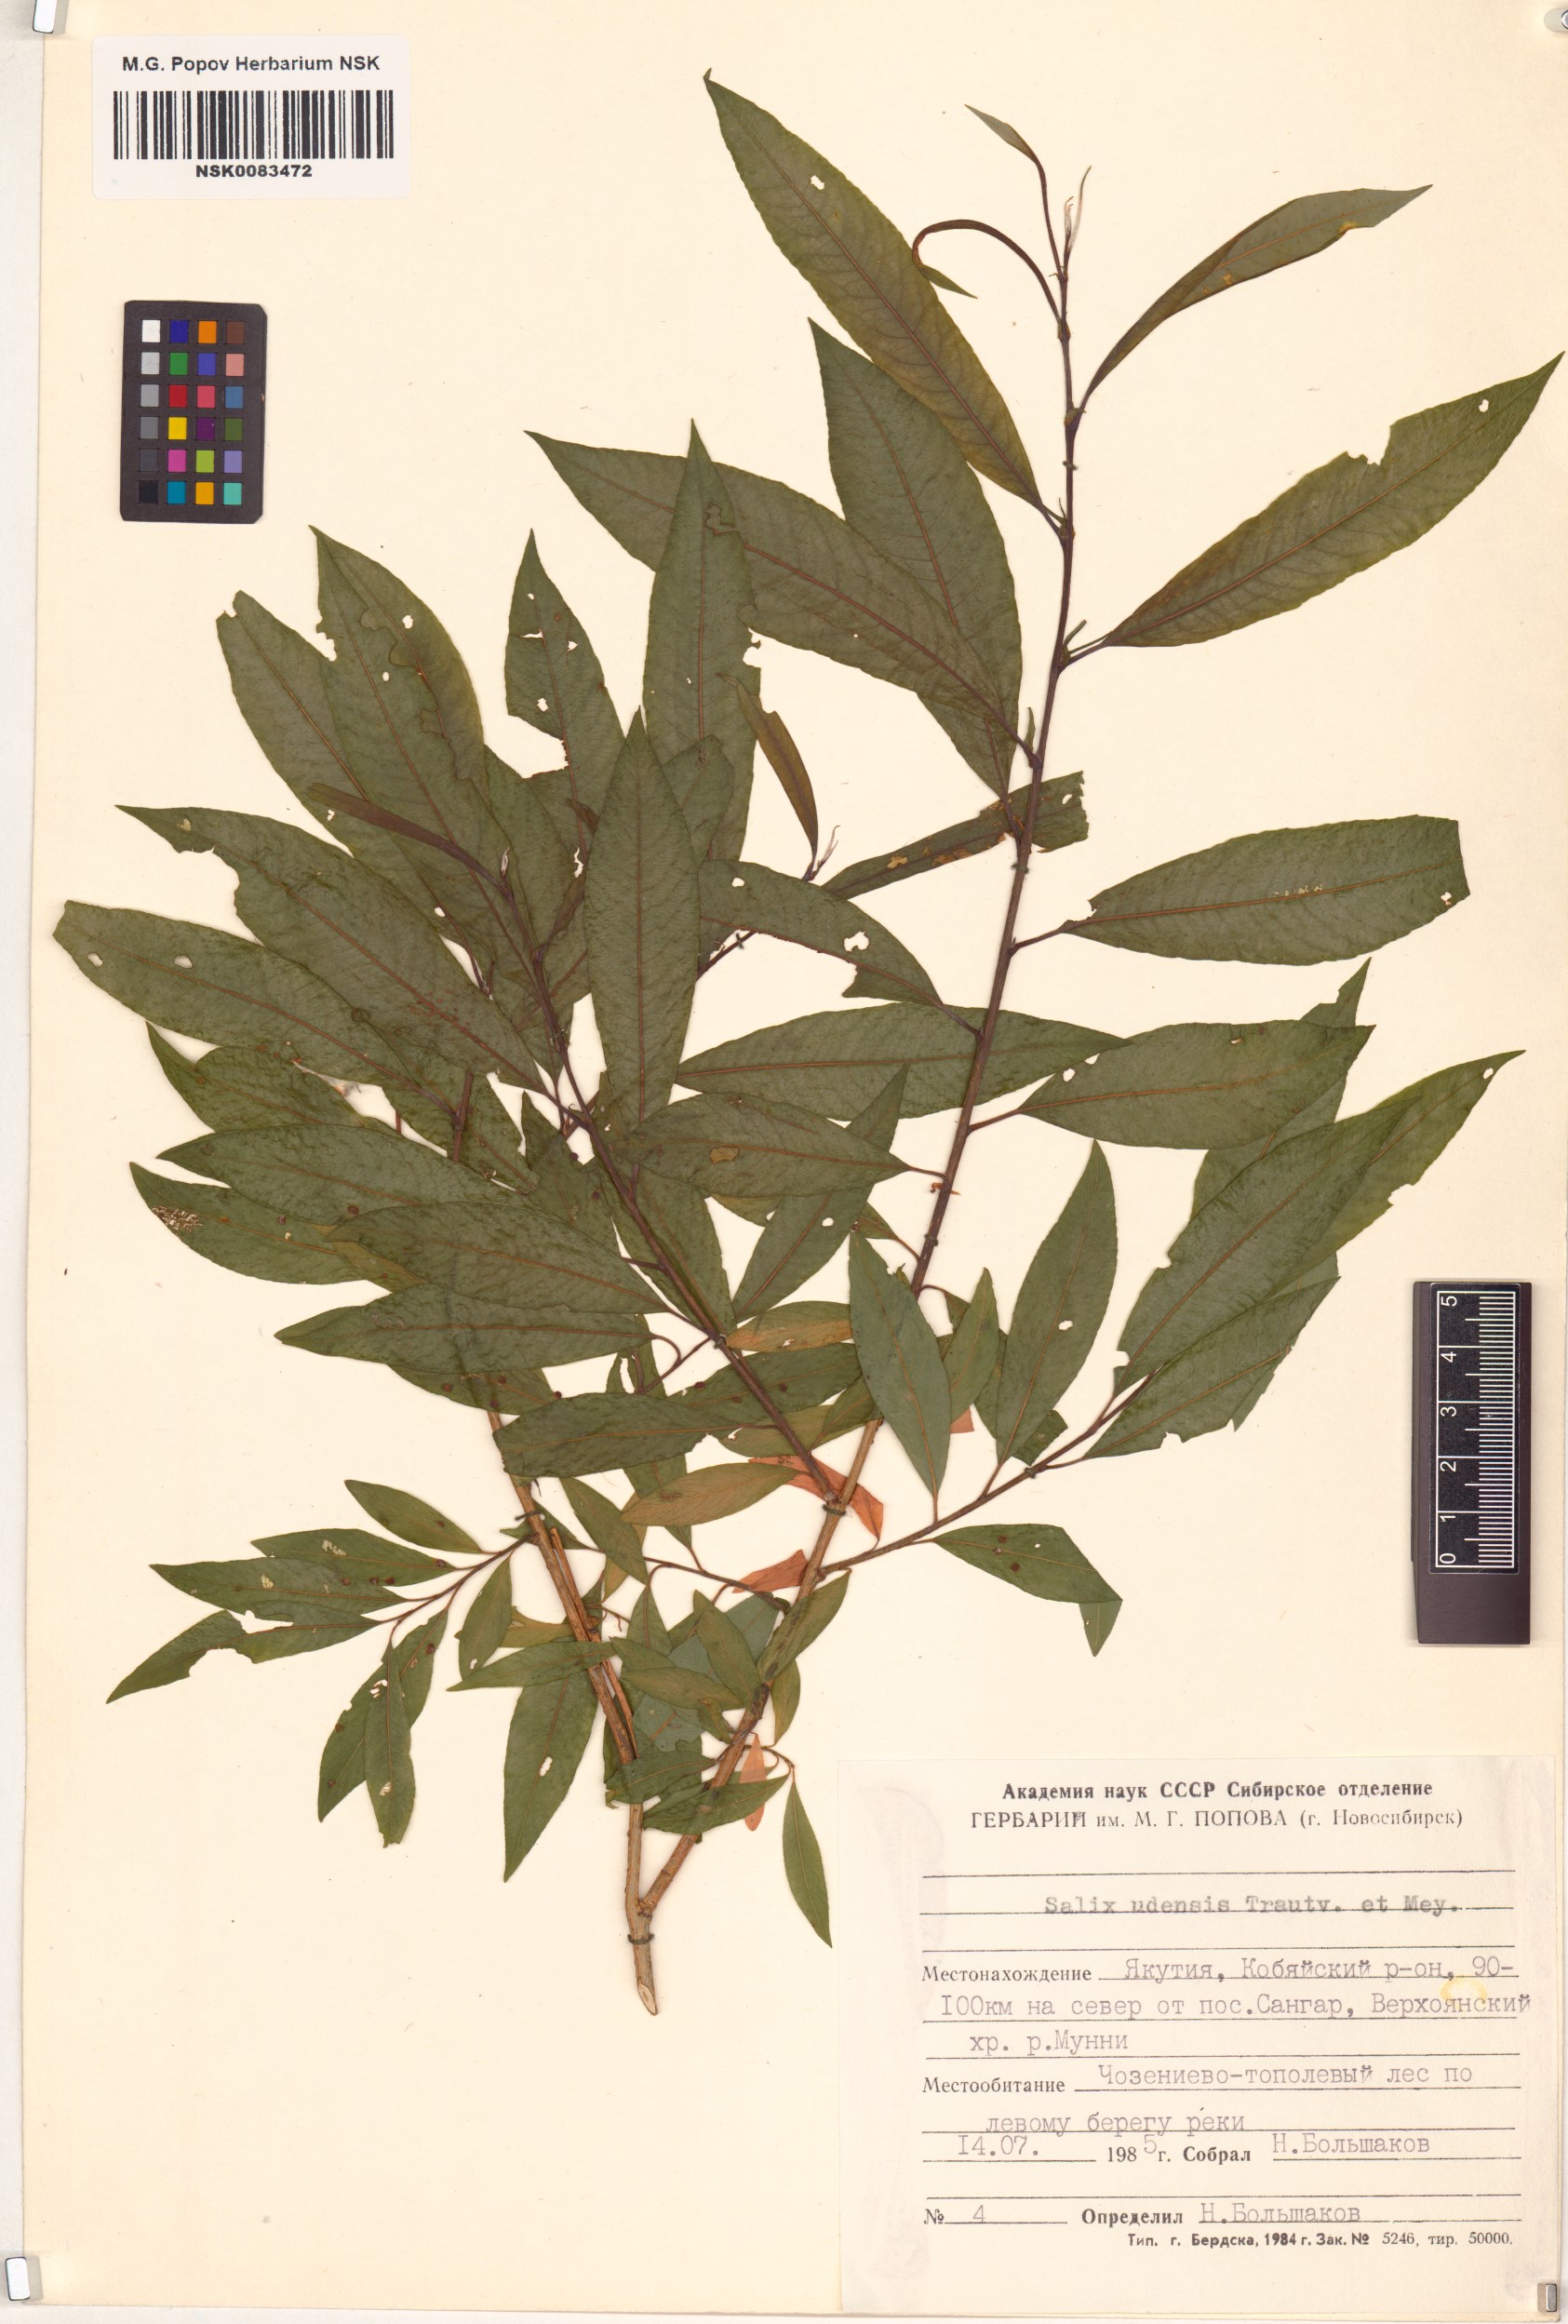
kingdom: Plantae
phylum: Tracheophyta
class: Magnoliopsida
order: Malpighiales
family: Salicaceae
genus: Salix
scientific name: Salix udensis
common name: Sachalin willow
